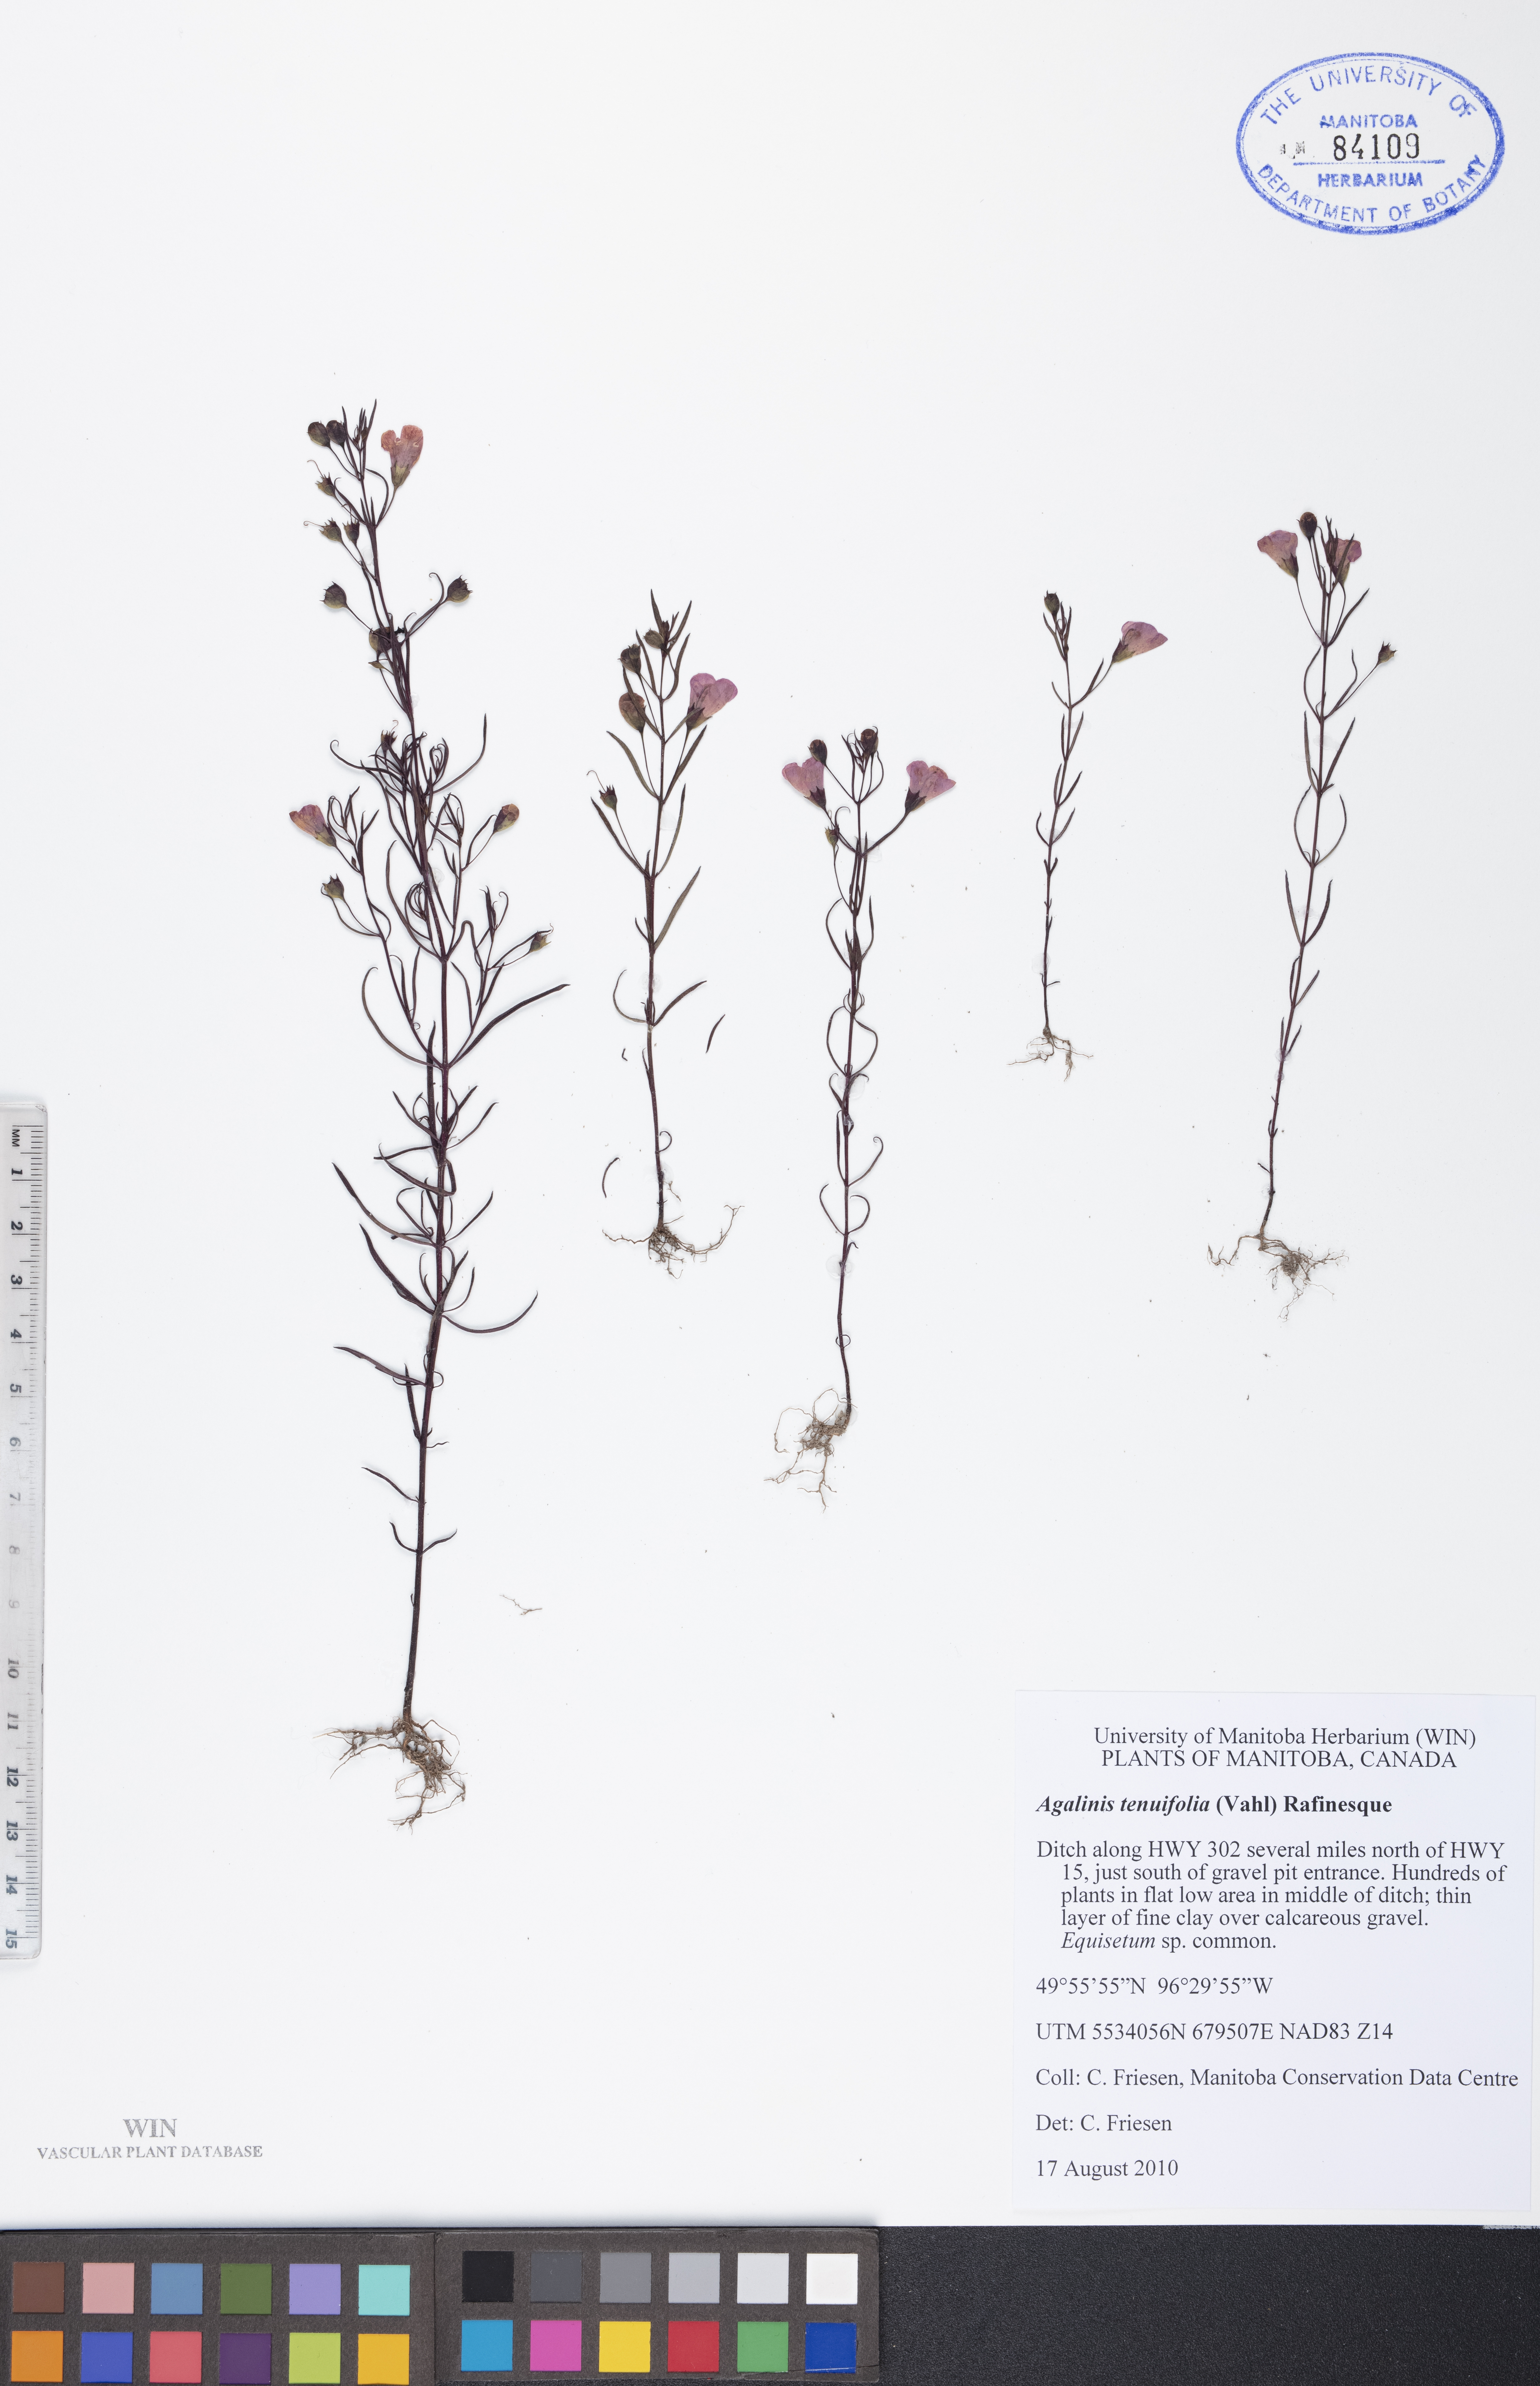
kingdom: Plantae
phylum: Tracheophyta
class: Magnoliopsida
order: Lamiales
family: Orobanchaceae
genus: Agalinis
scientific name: Agalinis tenuifolia
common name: Slender agalinis
